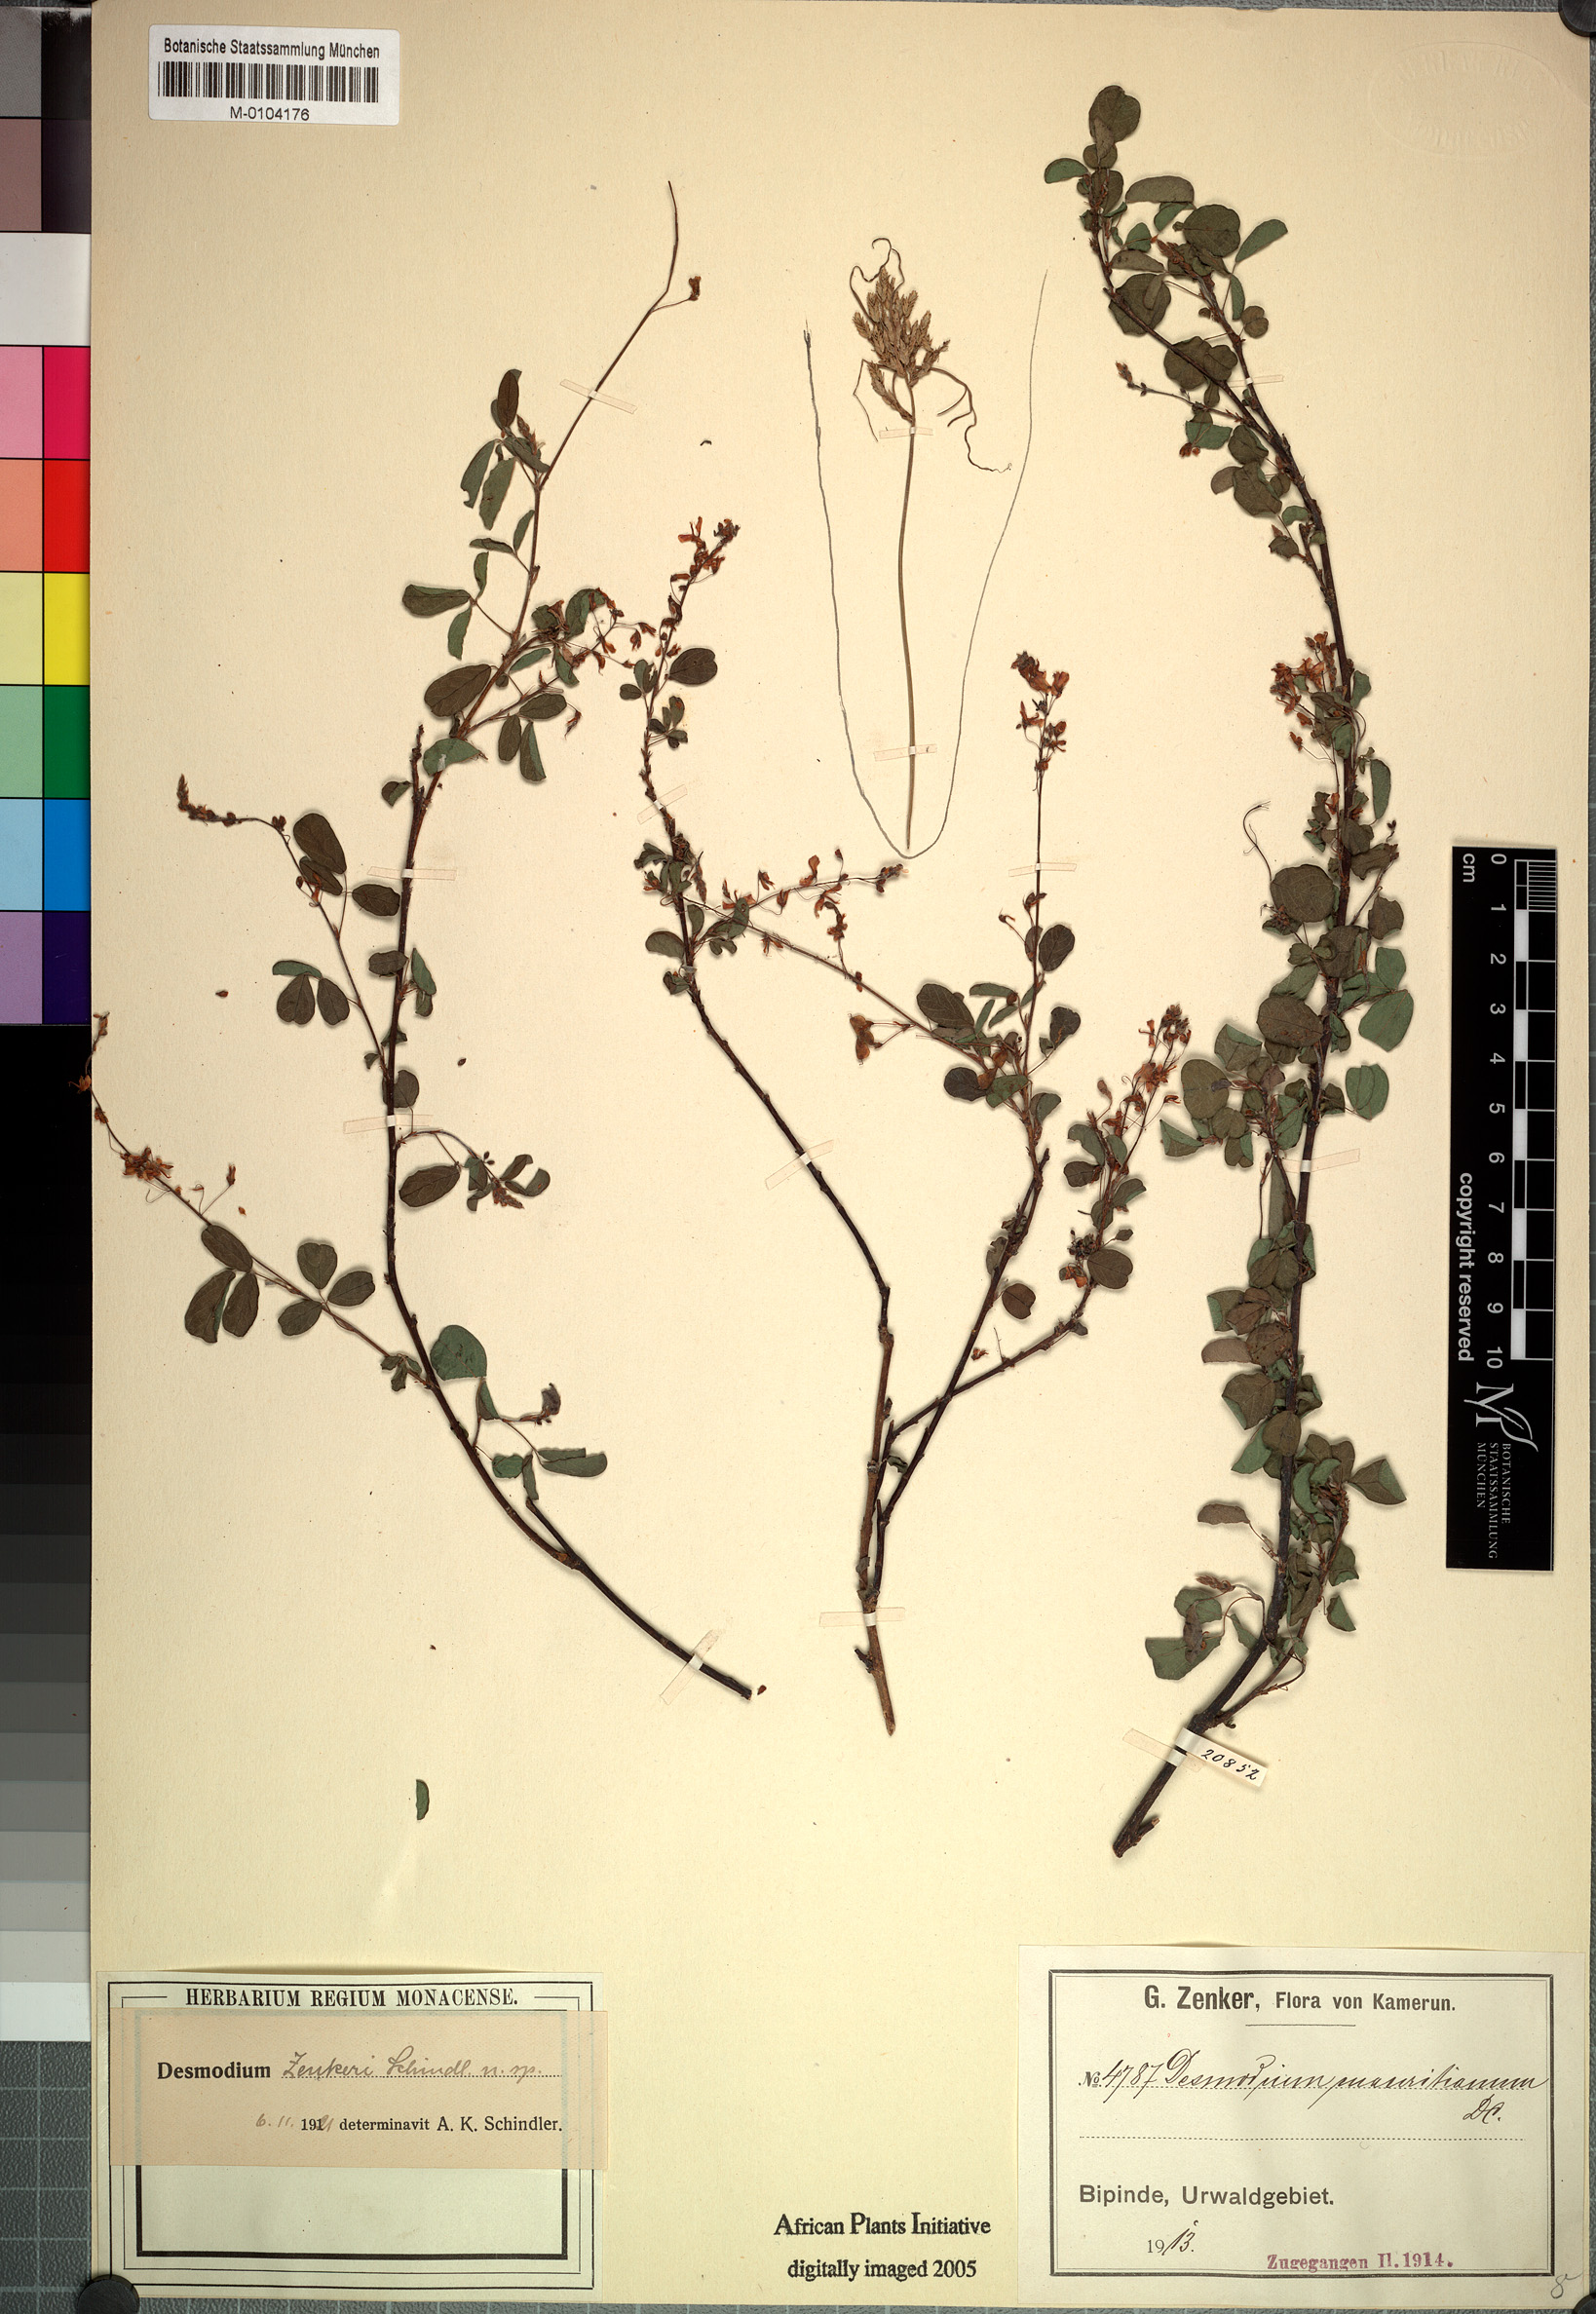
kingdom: Plantae
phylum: Tracheophyta
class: Magnoliopsida
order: Fabales
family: Fabaceae
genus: Grona
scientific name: Grona zenkeri
